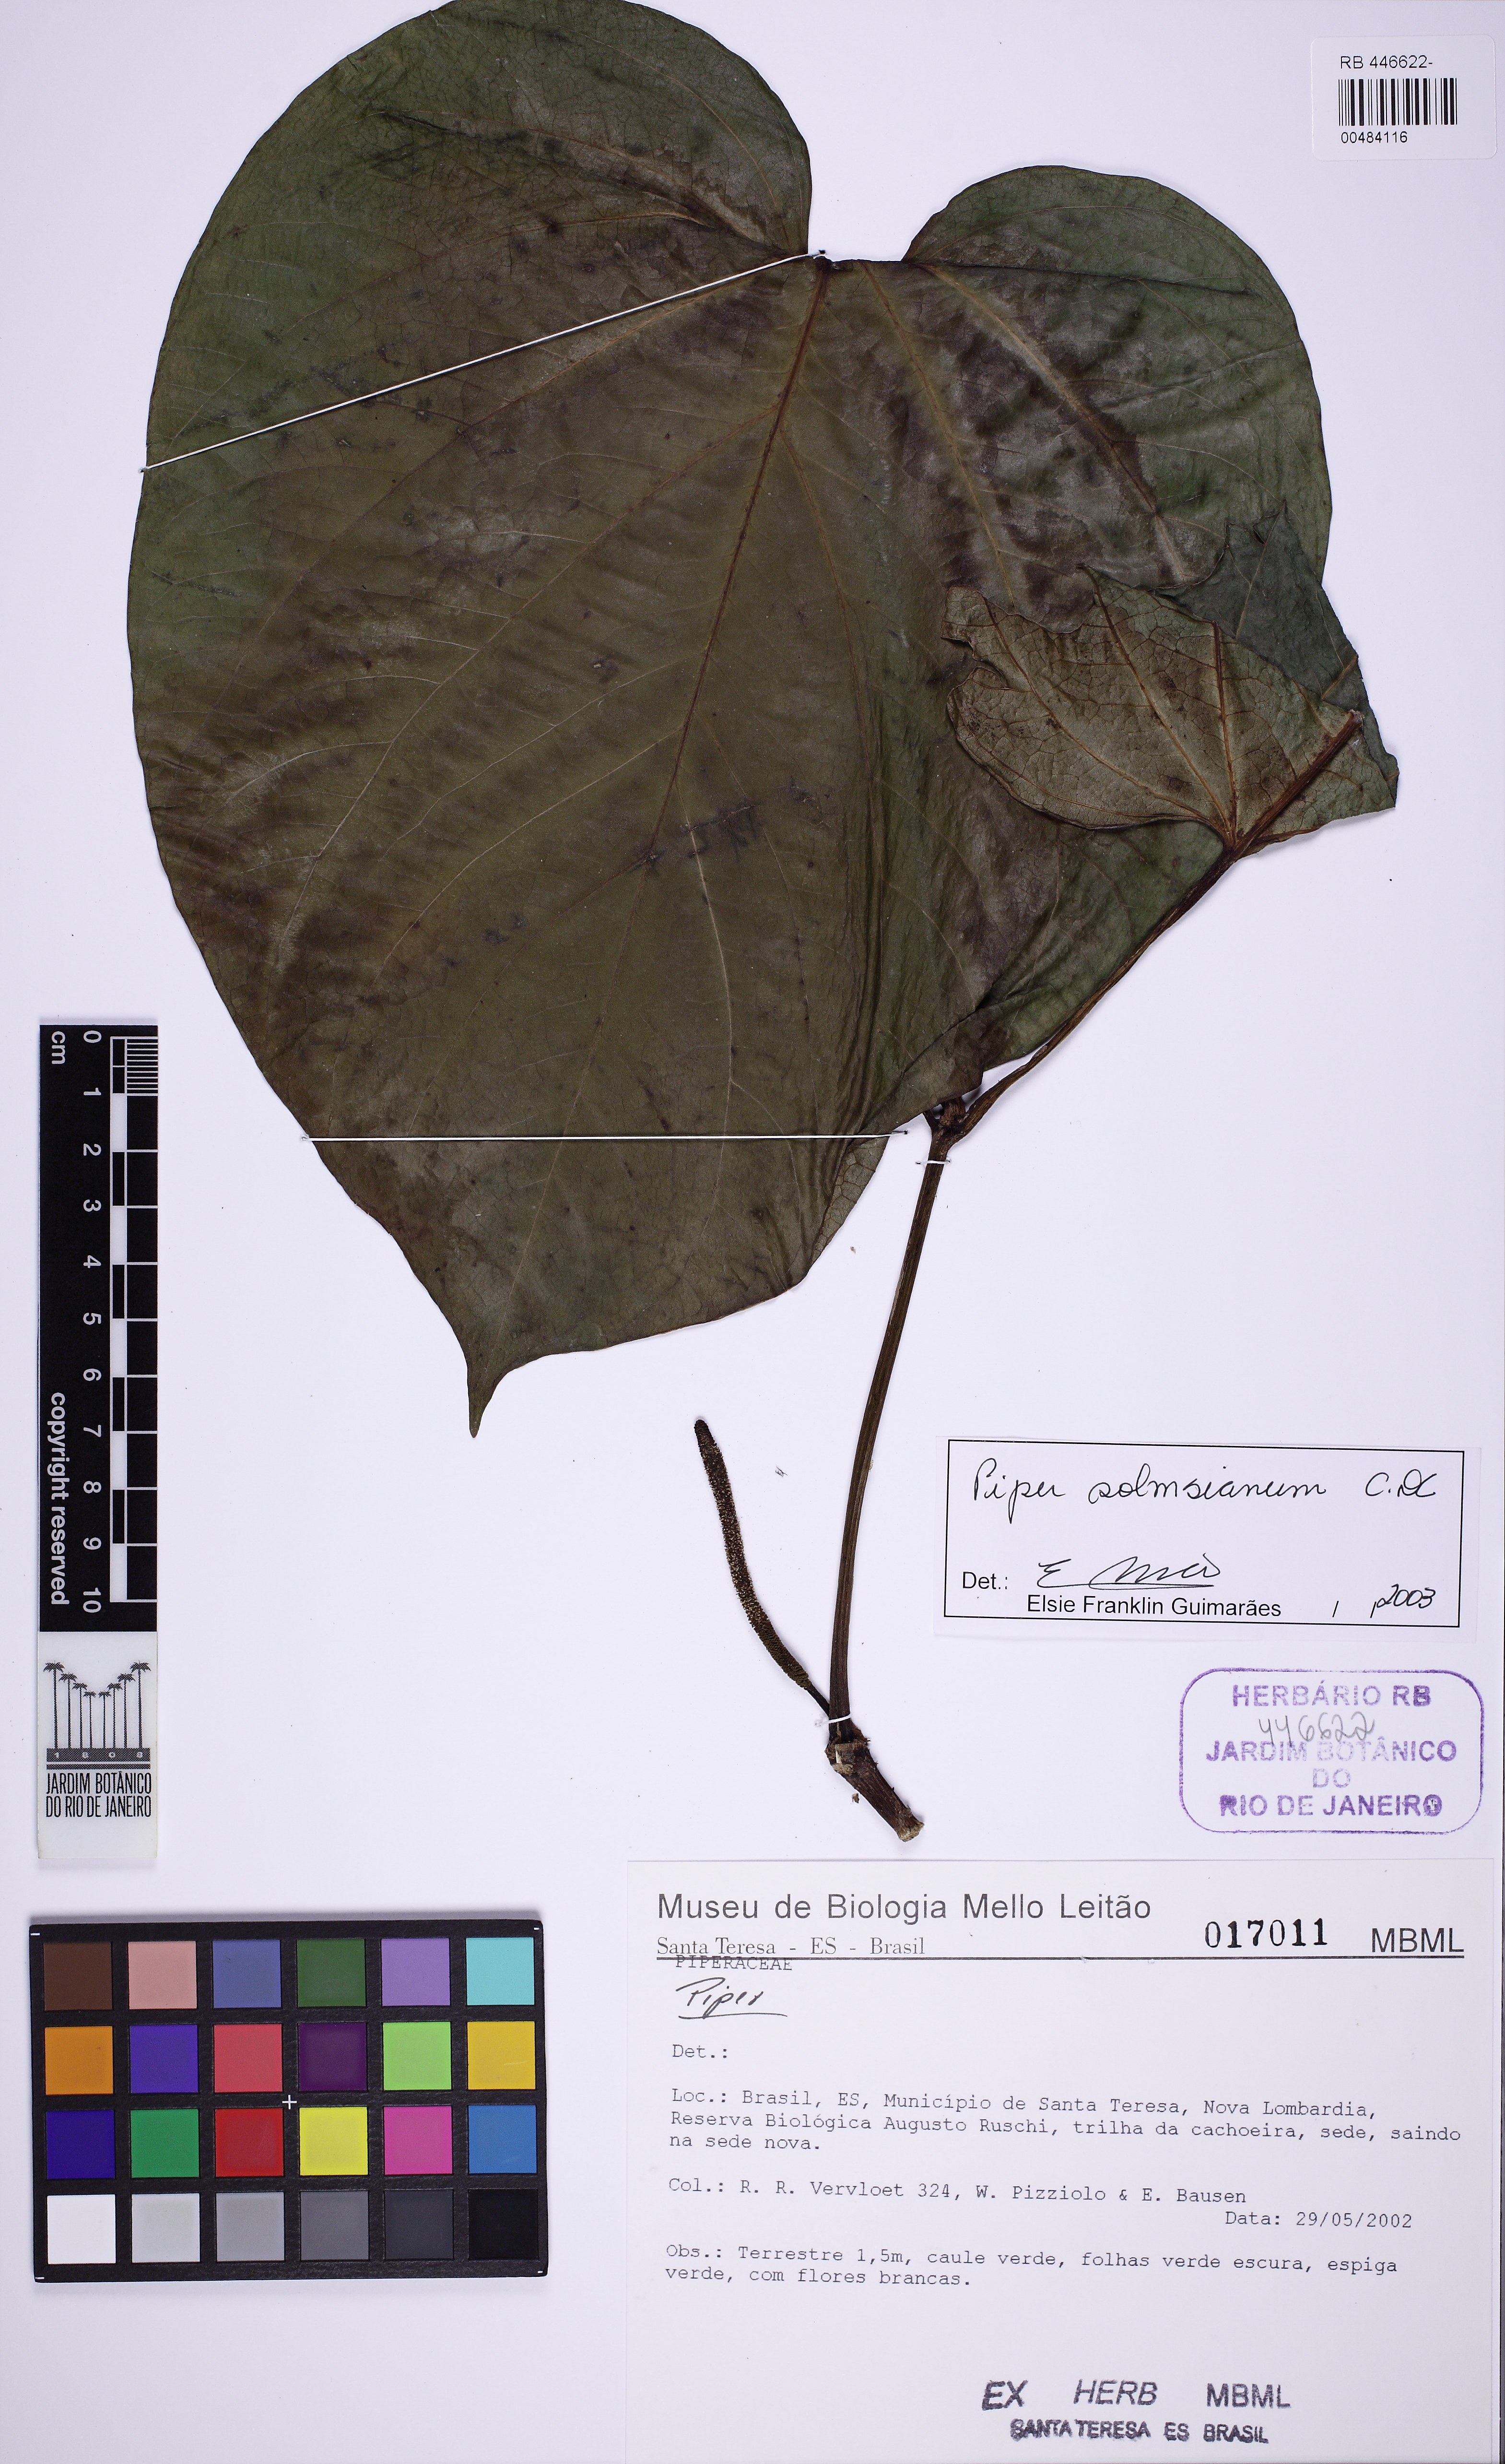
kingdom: Plantae
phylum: Tracheophyta
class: Magnoliopsida
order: Piperales
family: Piperaceae
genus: Piper
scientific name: Piper schenckii
